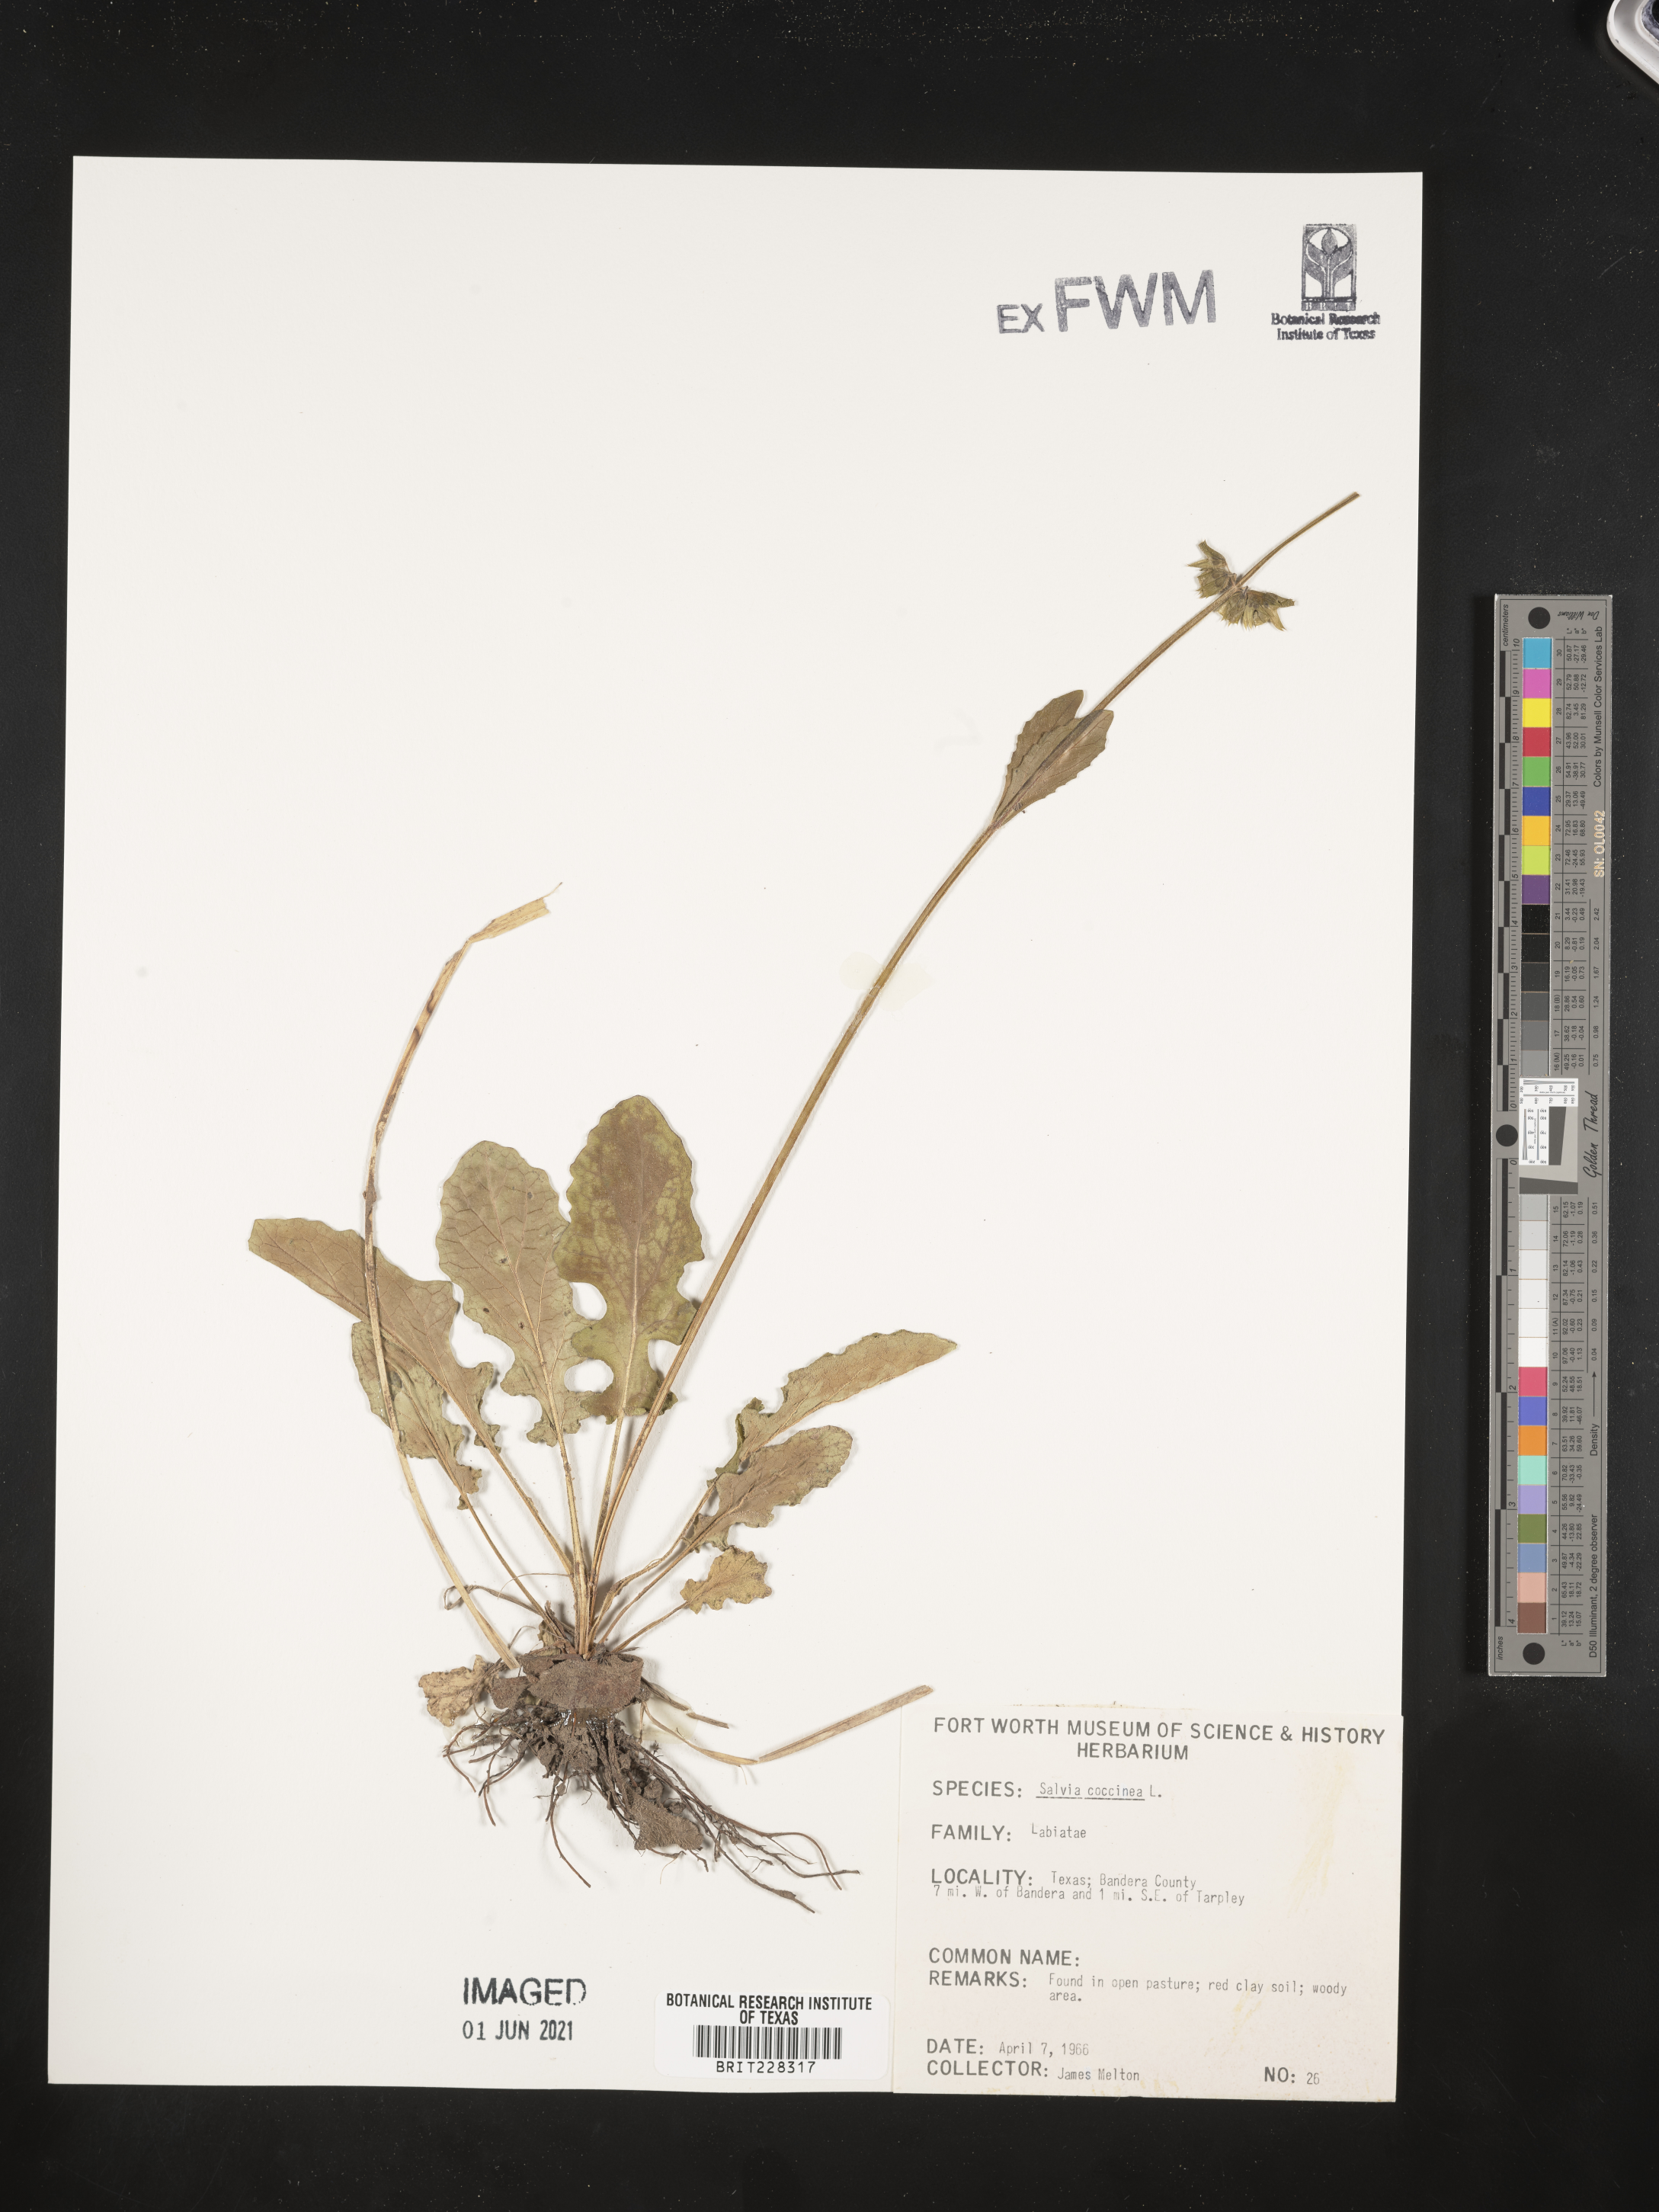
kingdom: Plantae
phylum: Tracheophyta
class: Magnoliopsida
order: Lamiales
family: Lamiaceae
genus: Salvia
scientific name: Salvia coccinea
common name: Blood sage
